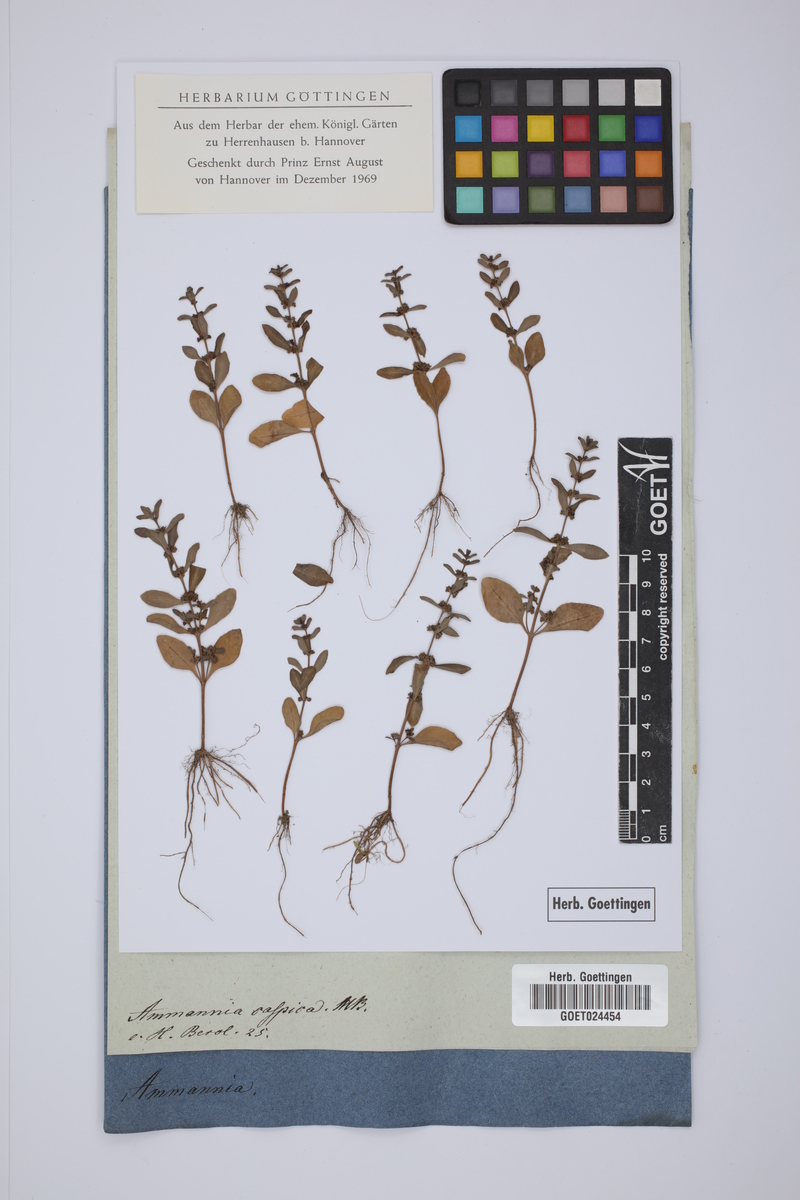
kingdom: Plantae
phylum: Tracheophyta
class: Magnoliopsida
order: Myrtales
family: Lythraceae
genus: Ammannia
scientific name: Ammannia baccifera
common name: Blistering ammania
